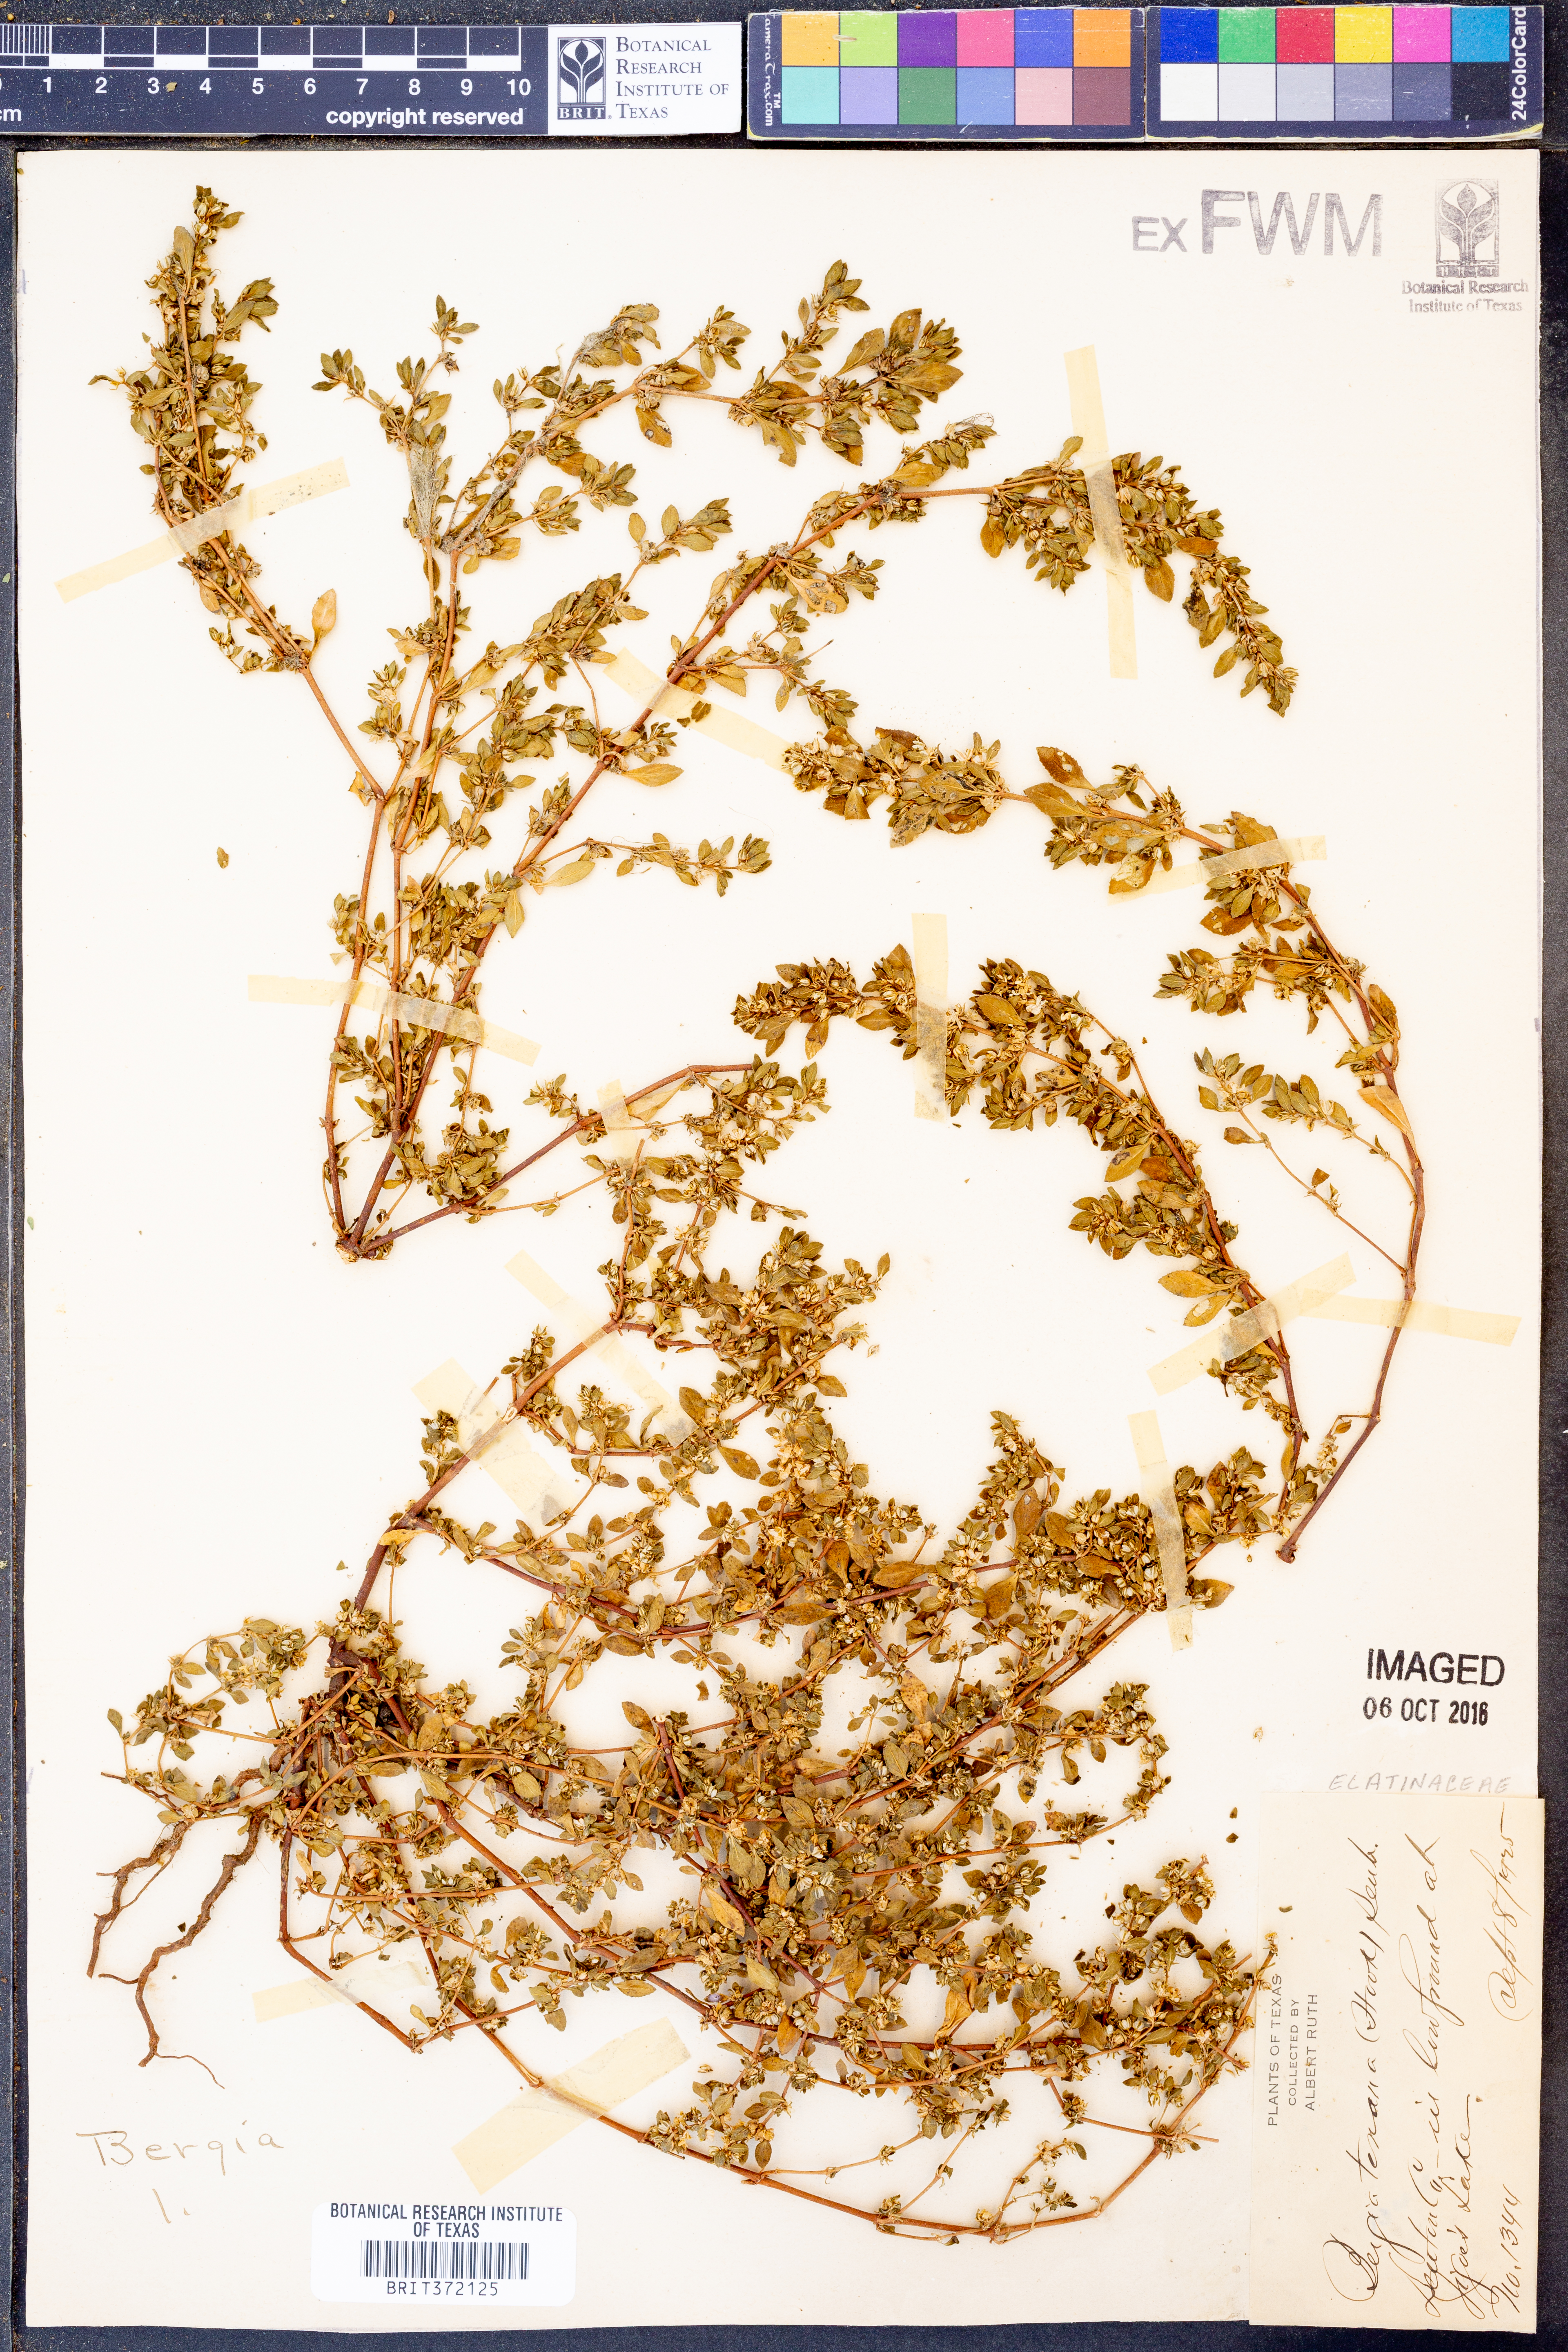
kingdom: Plantae
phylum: Tracheophyta
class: Magnoliopsida
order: Malpighiales
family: Elatinaceae
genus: Bergia
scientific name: Bergia texana
